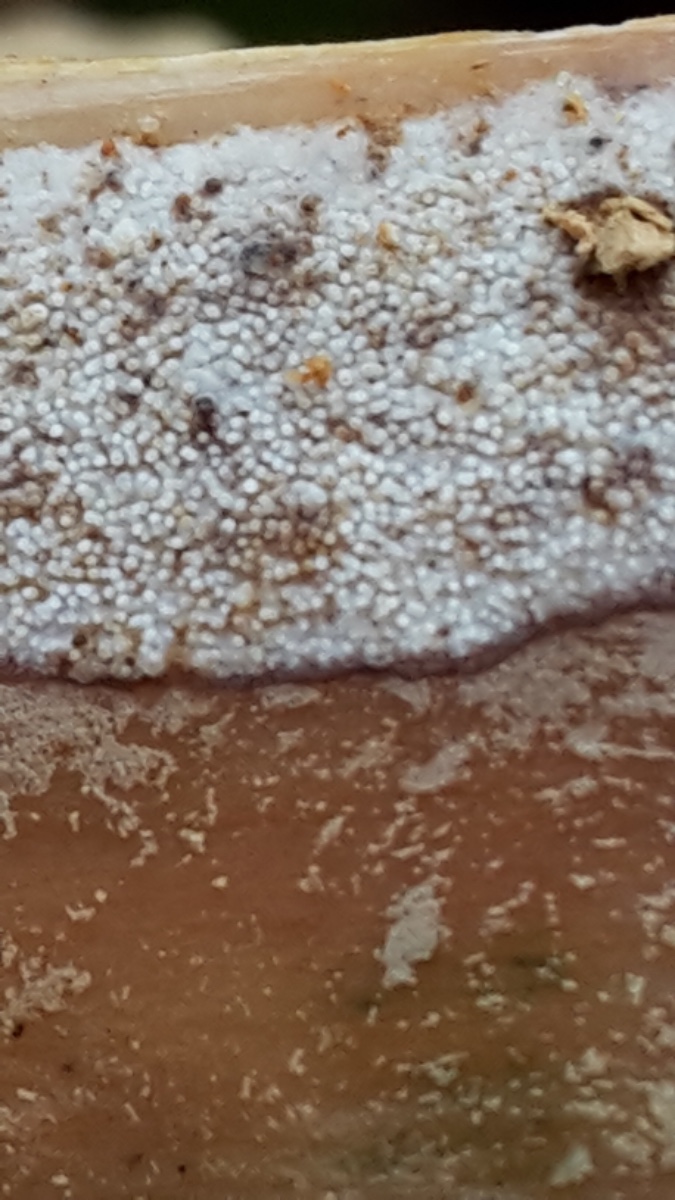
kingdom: Fungi
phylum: Basidiomycota
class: Agaricomycetes
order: Hymenochaetales
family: Rickenellaceae
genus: Resinicium
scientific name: Resinicium bicolor
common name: almindelig vokstand
